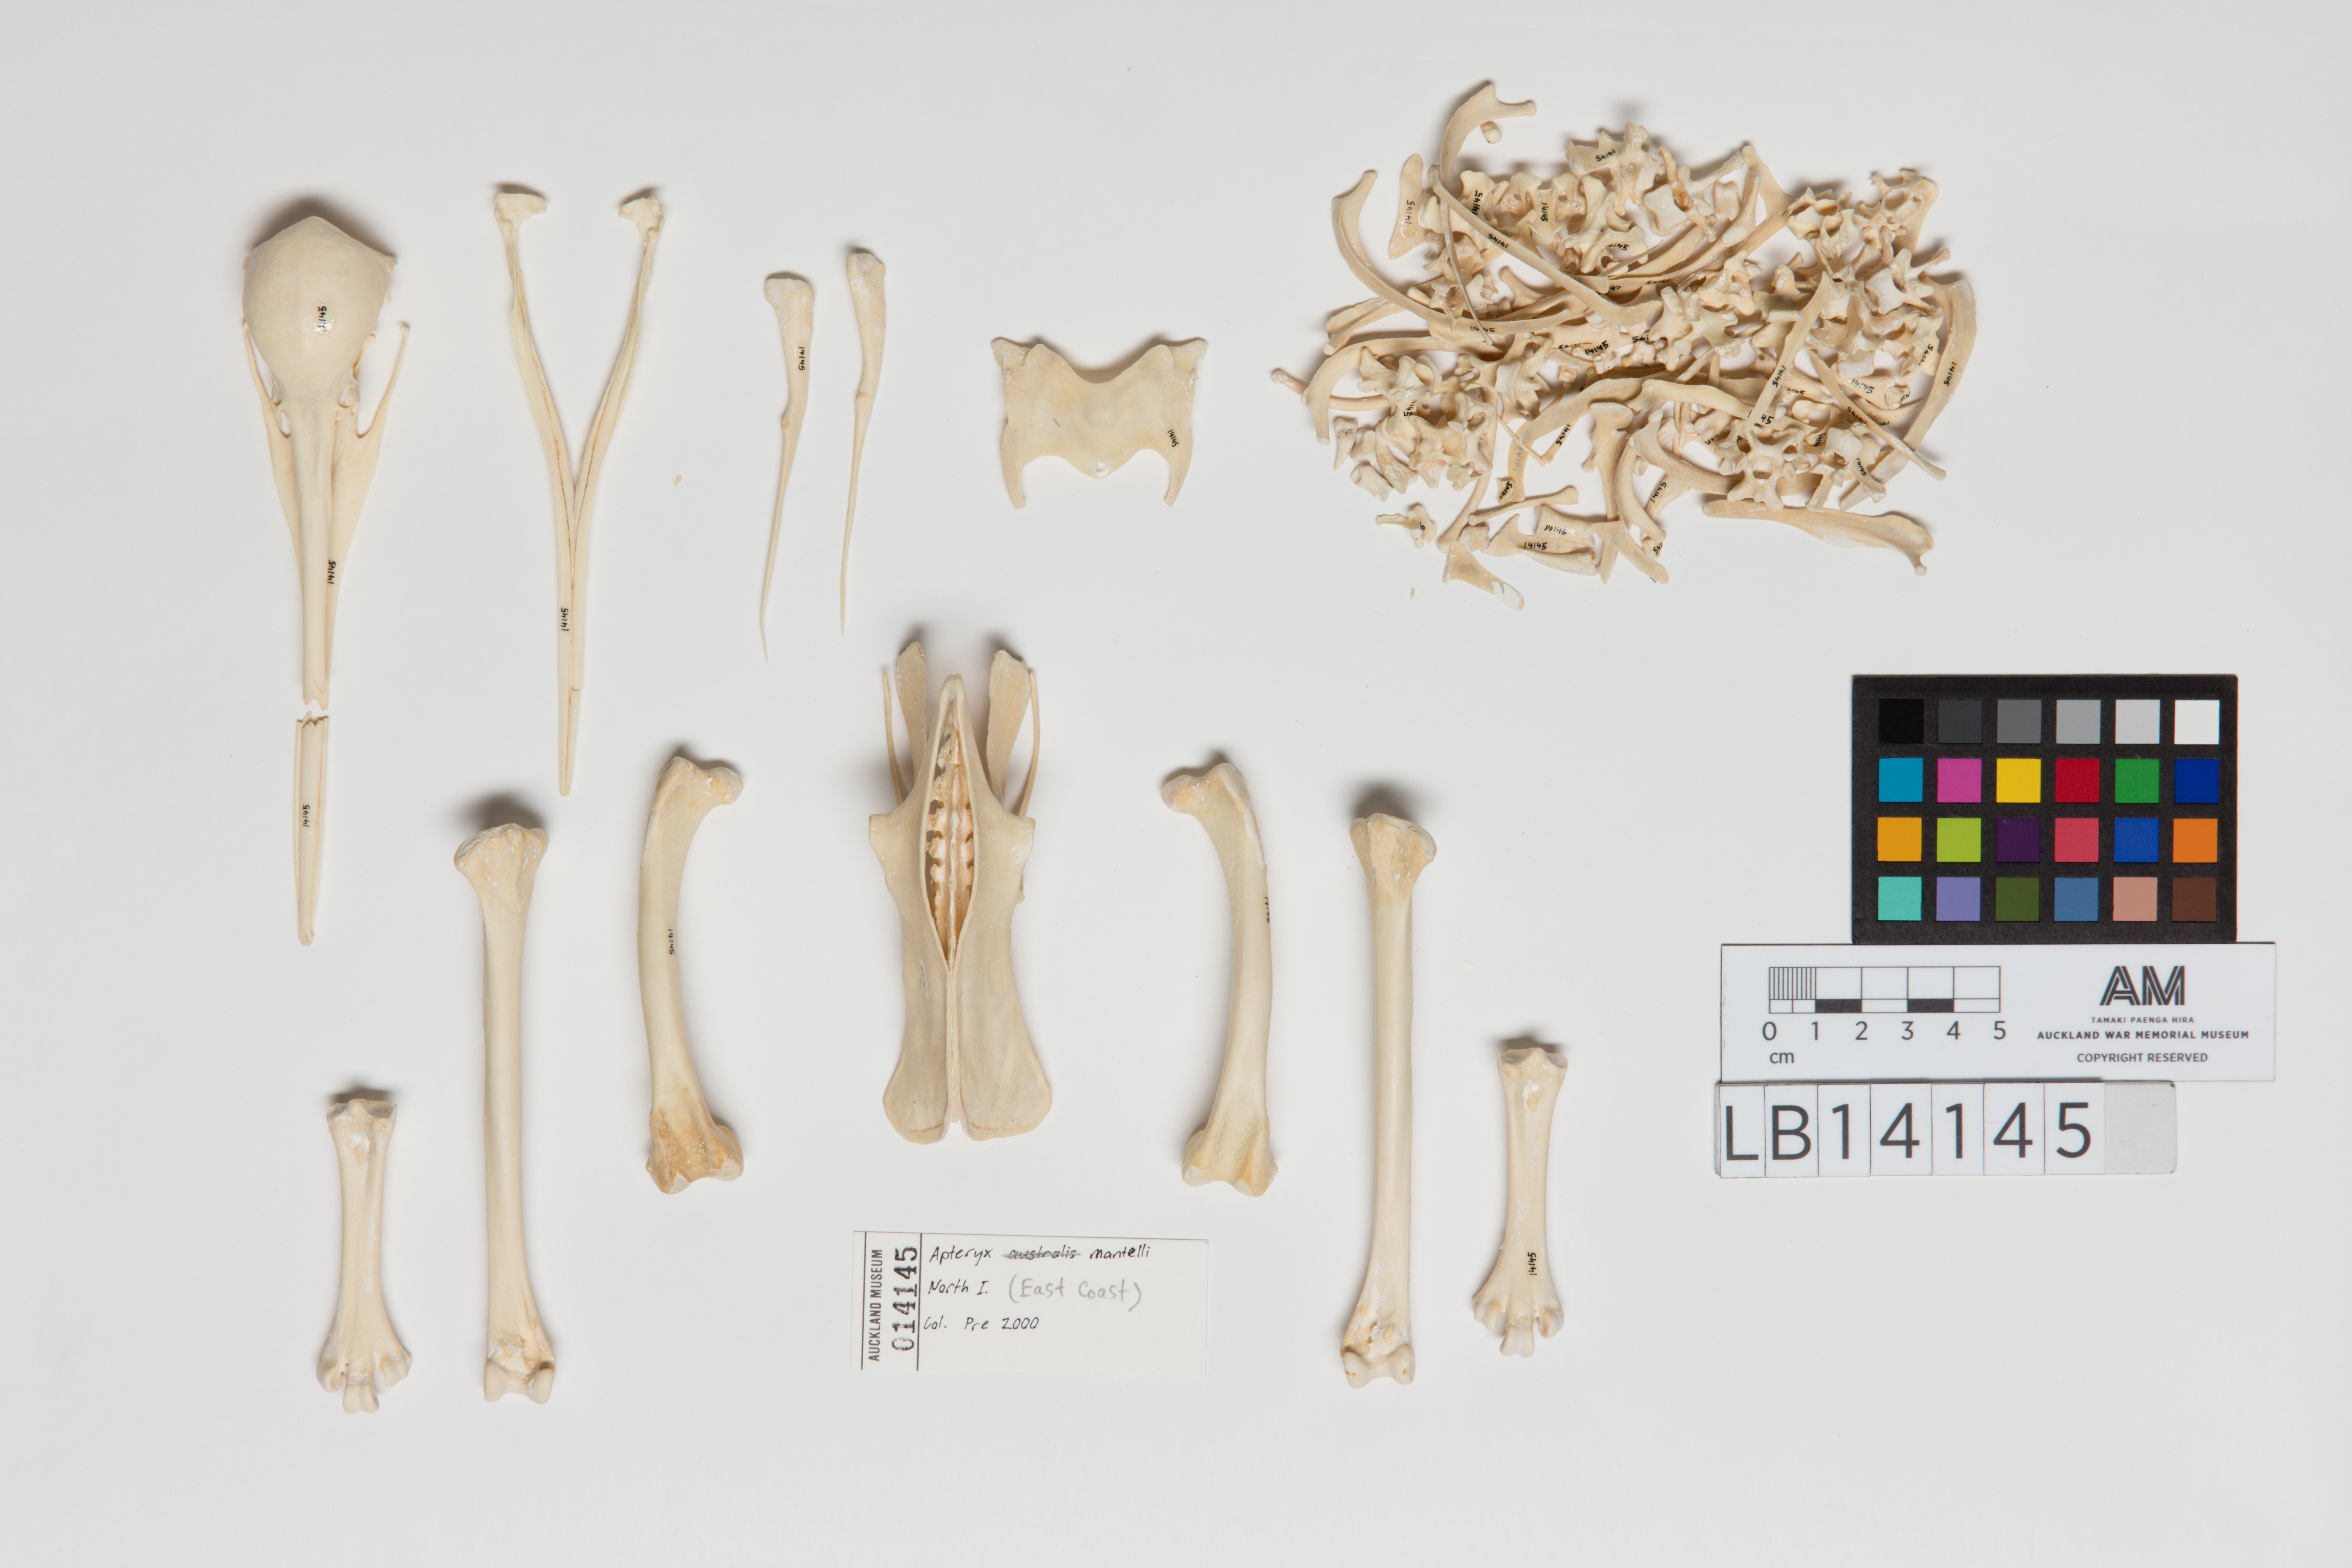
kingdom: Animalia
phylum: Chordata
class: Aves
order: Apterygiformes
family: Apterygidae
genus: Apteryx
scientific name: Apteryx mantelli
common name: North island brown kiwi
